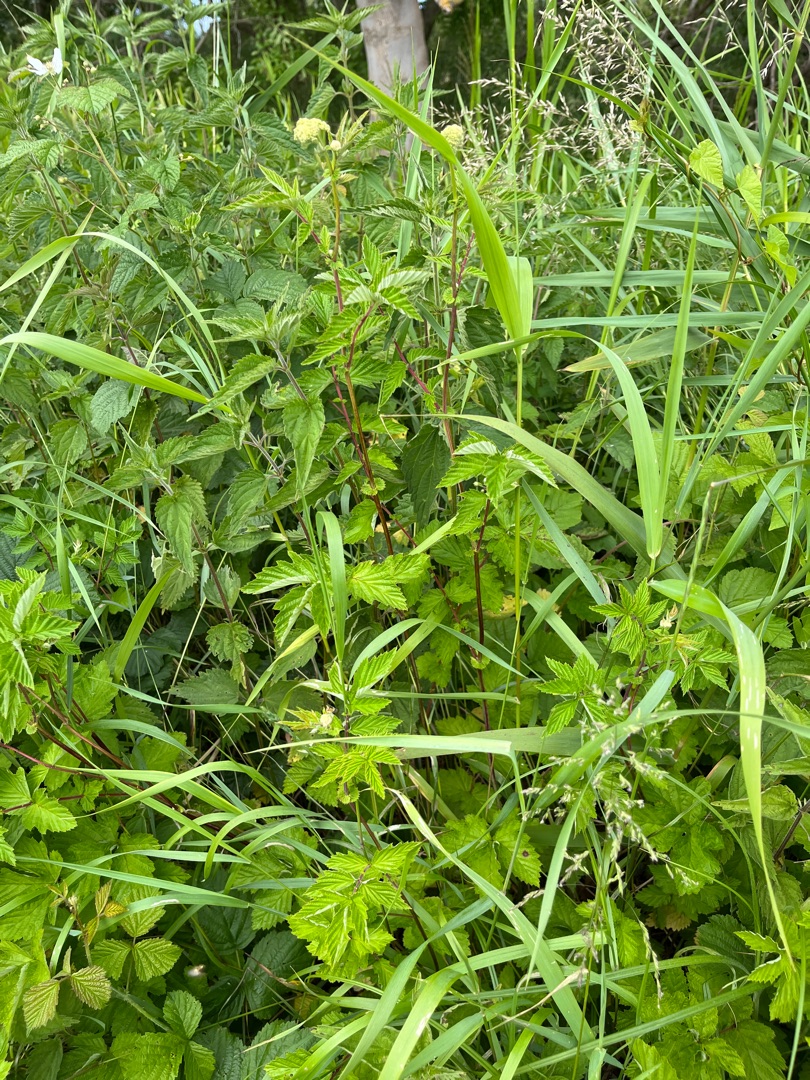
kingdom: Plantae
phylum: Tracheophyta
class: Magnoliopsida
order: Rosales
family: Rosaceae
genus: Filipendula
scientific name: Filipendula ulmaria
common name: Almindelig mjødurt
